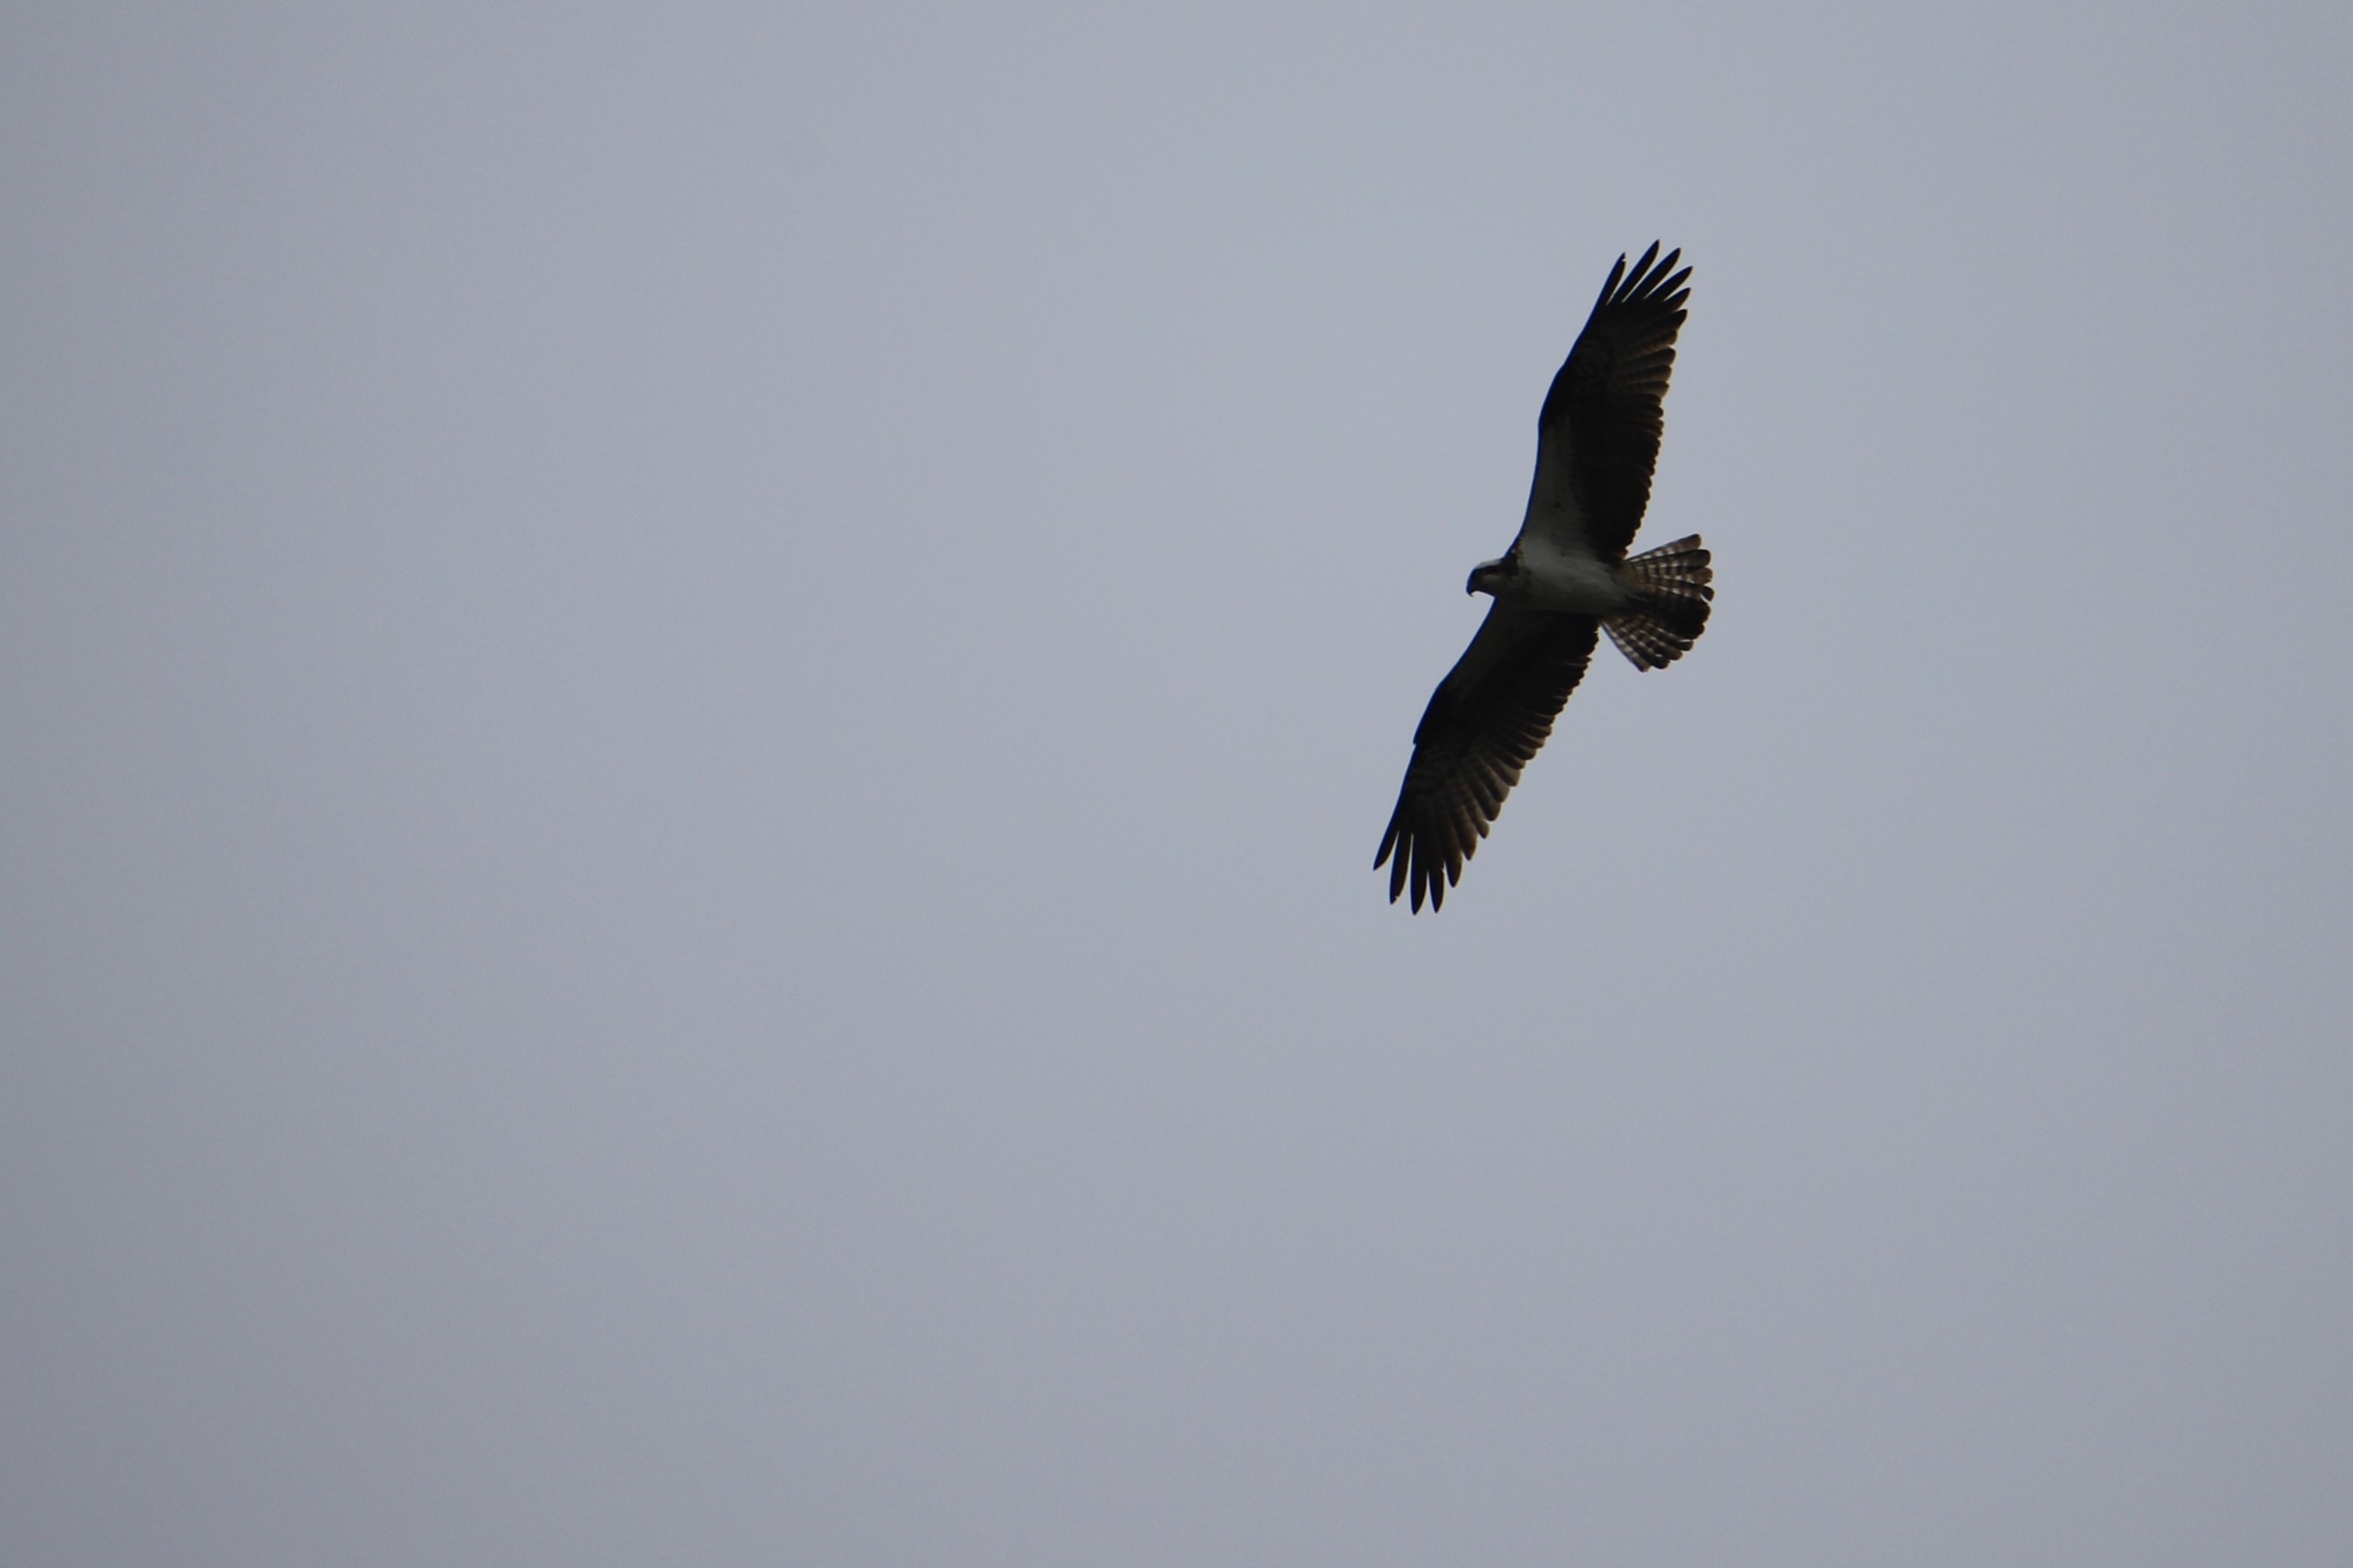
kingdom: Animalia
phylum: Chordata
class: Aves
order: Accipitriformes
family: Pandionidae
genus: Pandion
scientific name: Pandion haliaetus
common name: Fiskeørn
